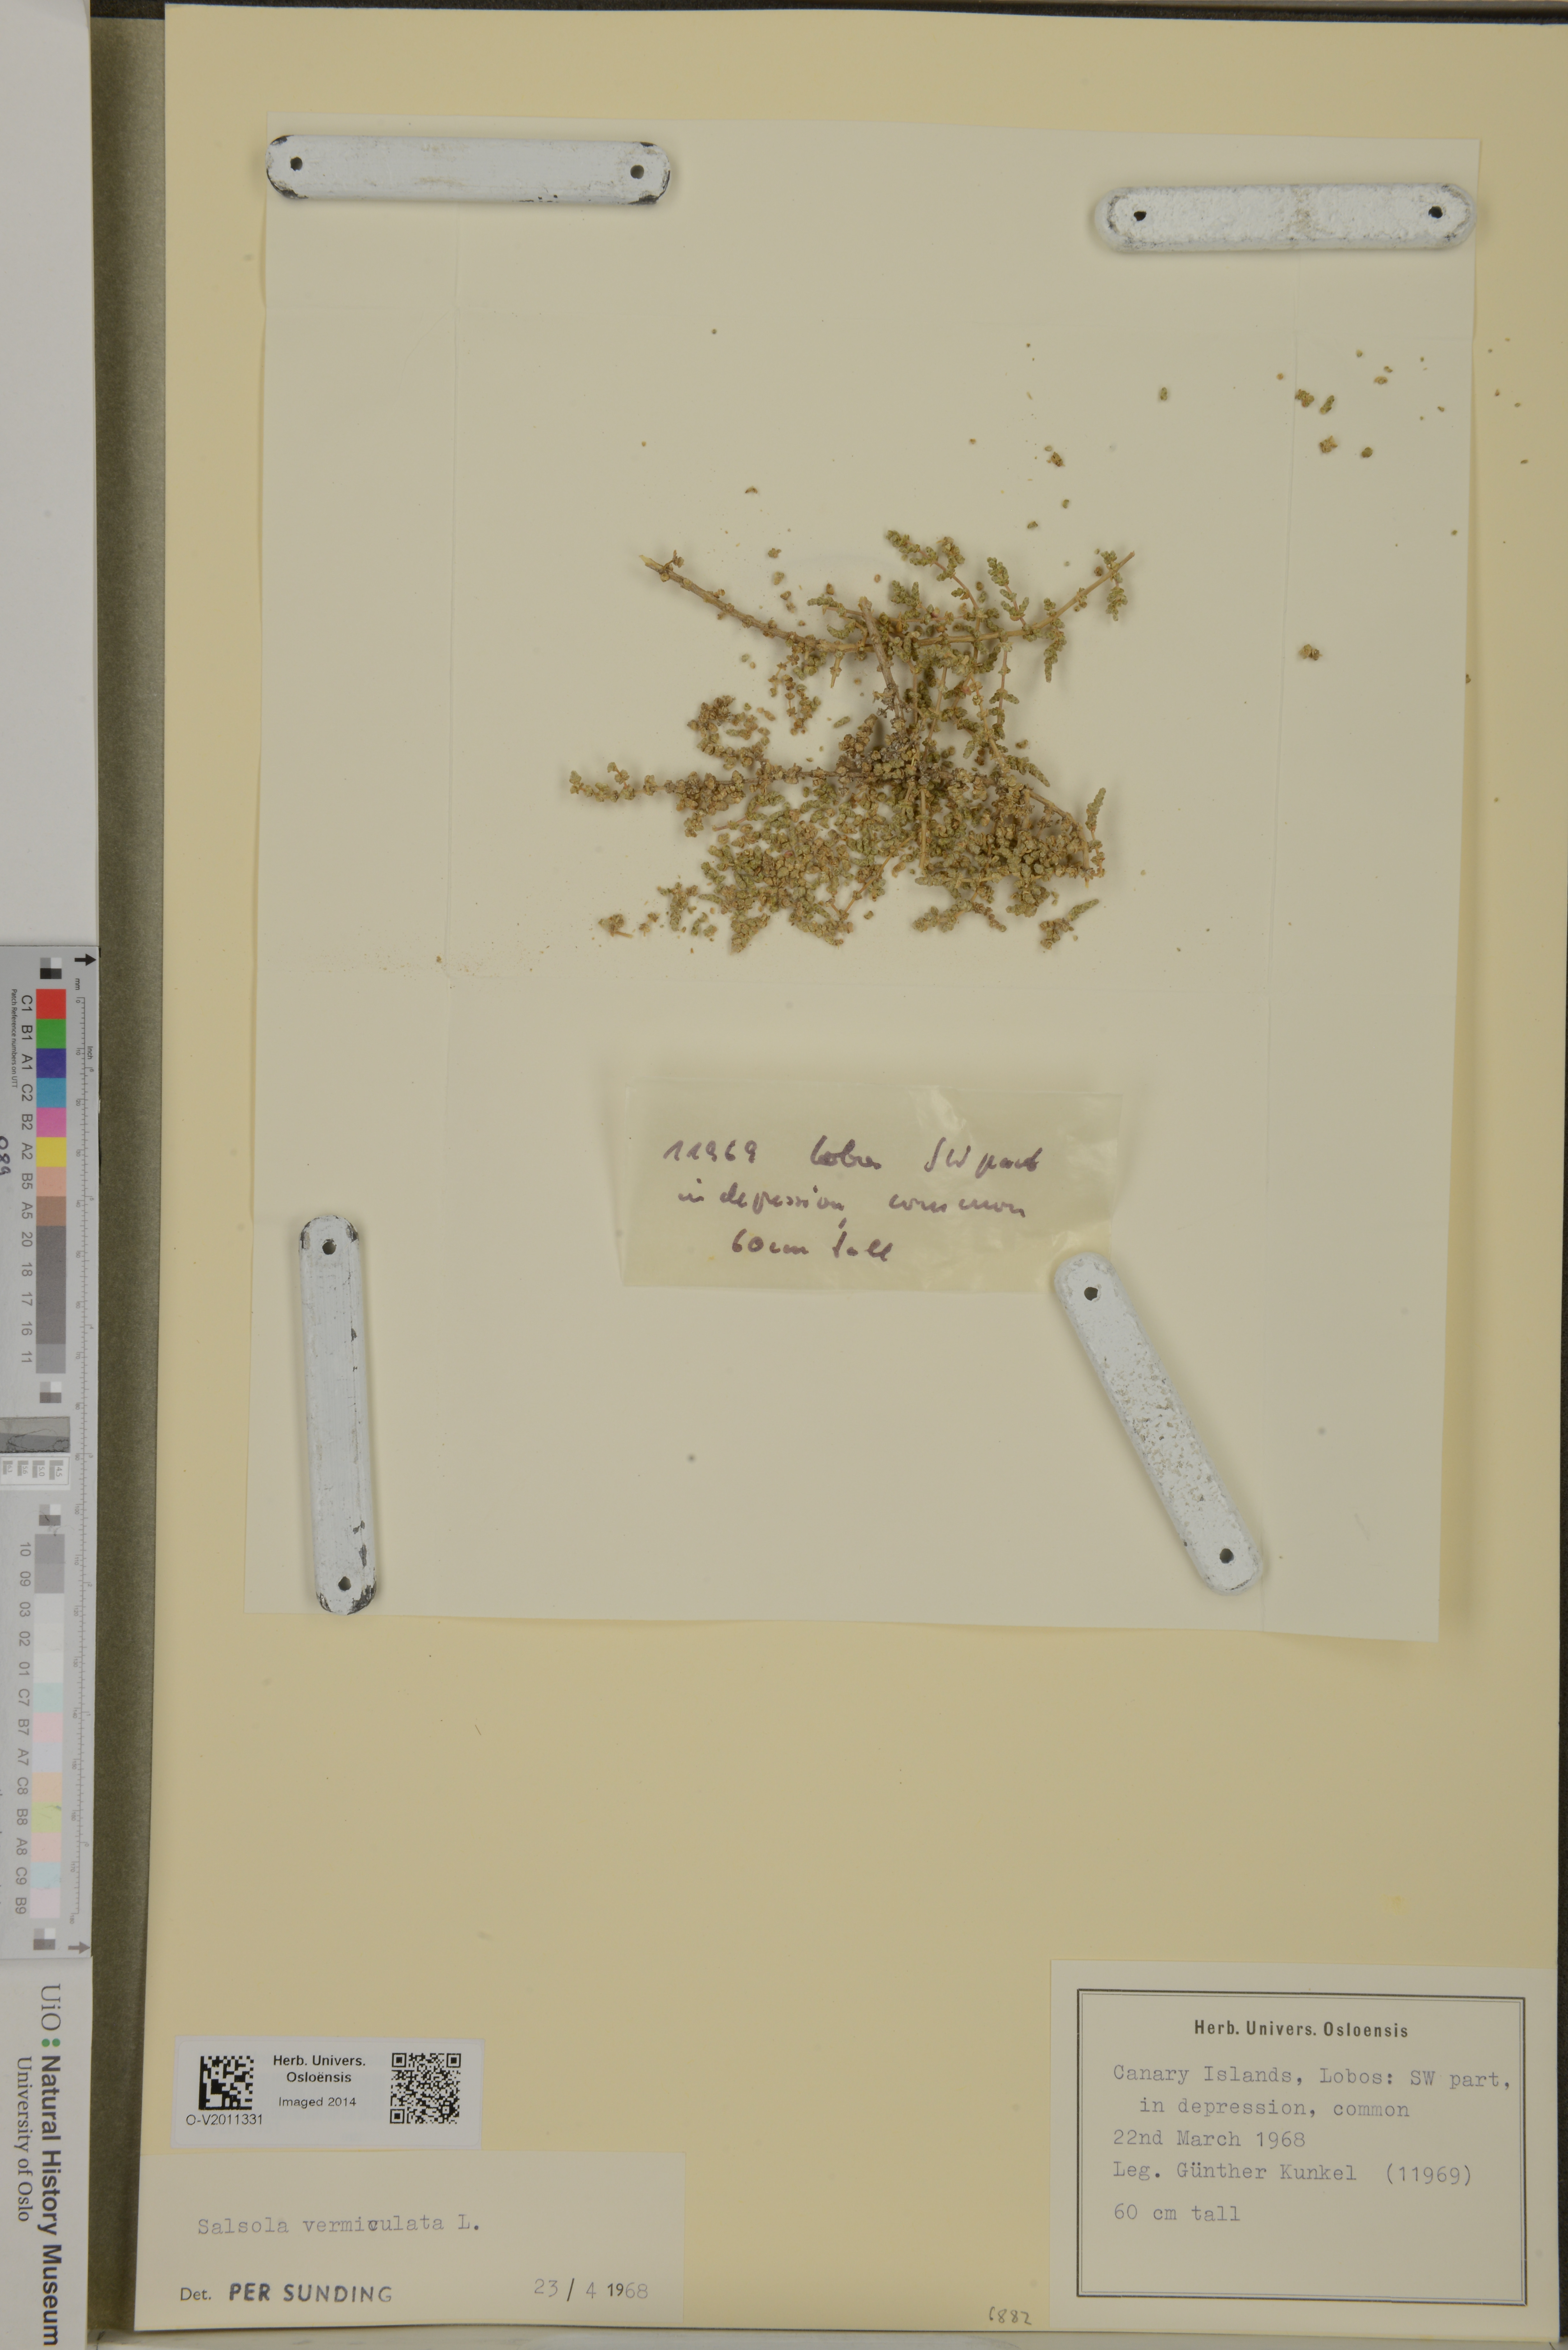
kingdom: Plantae
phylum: Tracheophyta
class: Magnoliopsida
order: Caryophyllales
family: Amaranthaceae
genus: Nitrosalsola
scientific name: Nitrosalsola vermiculata
